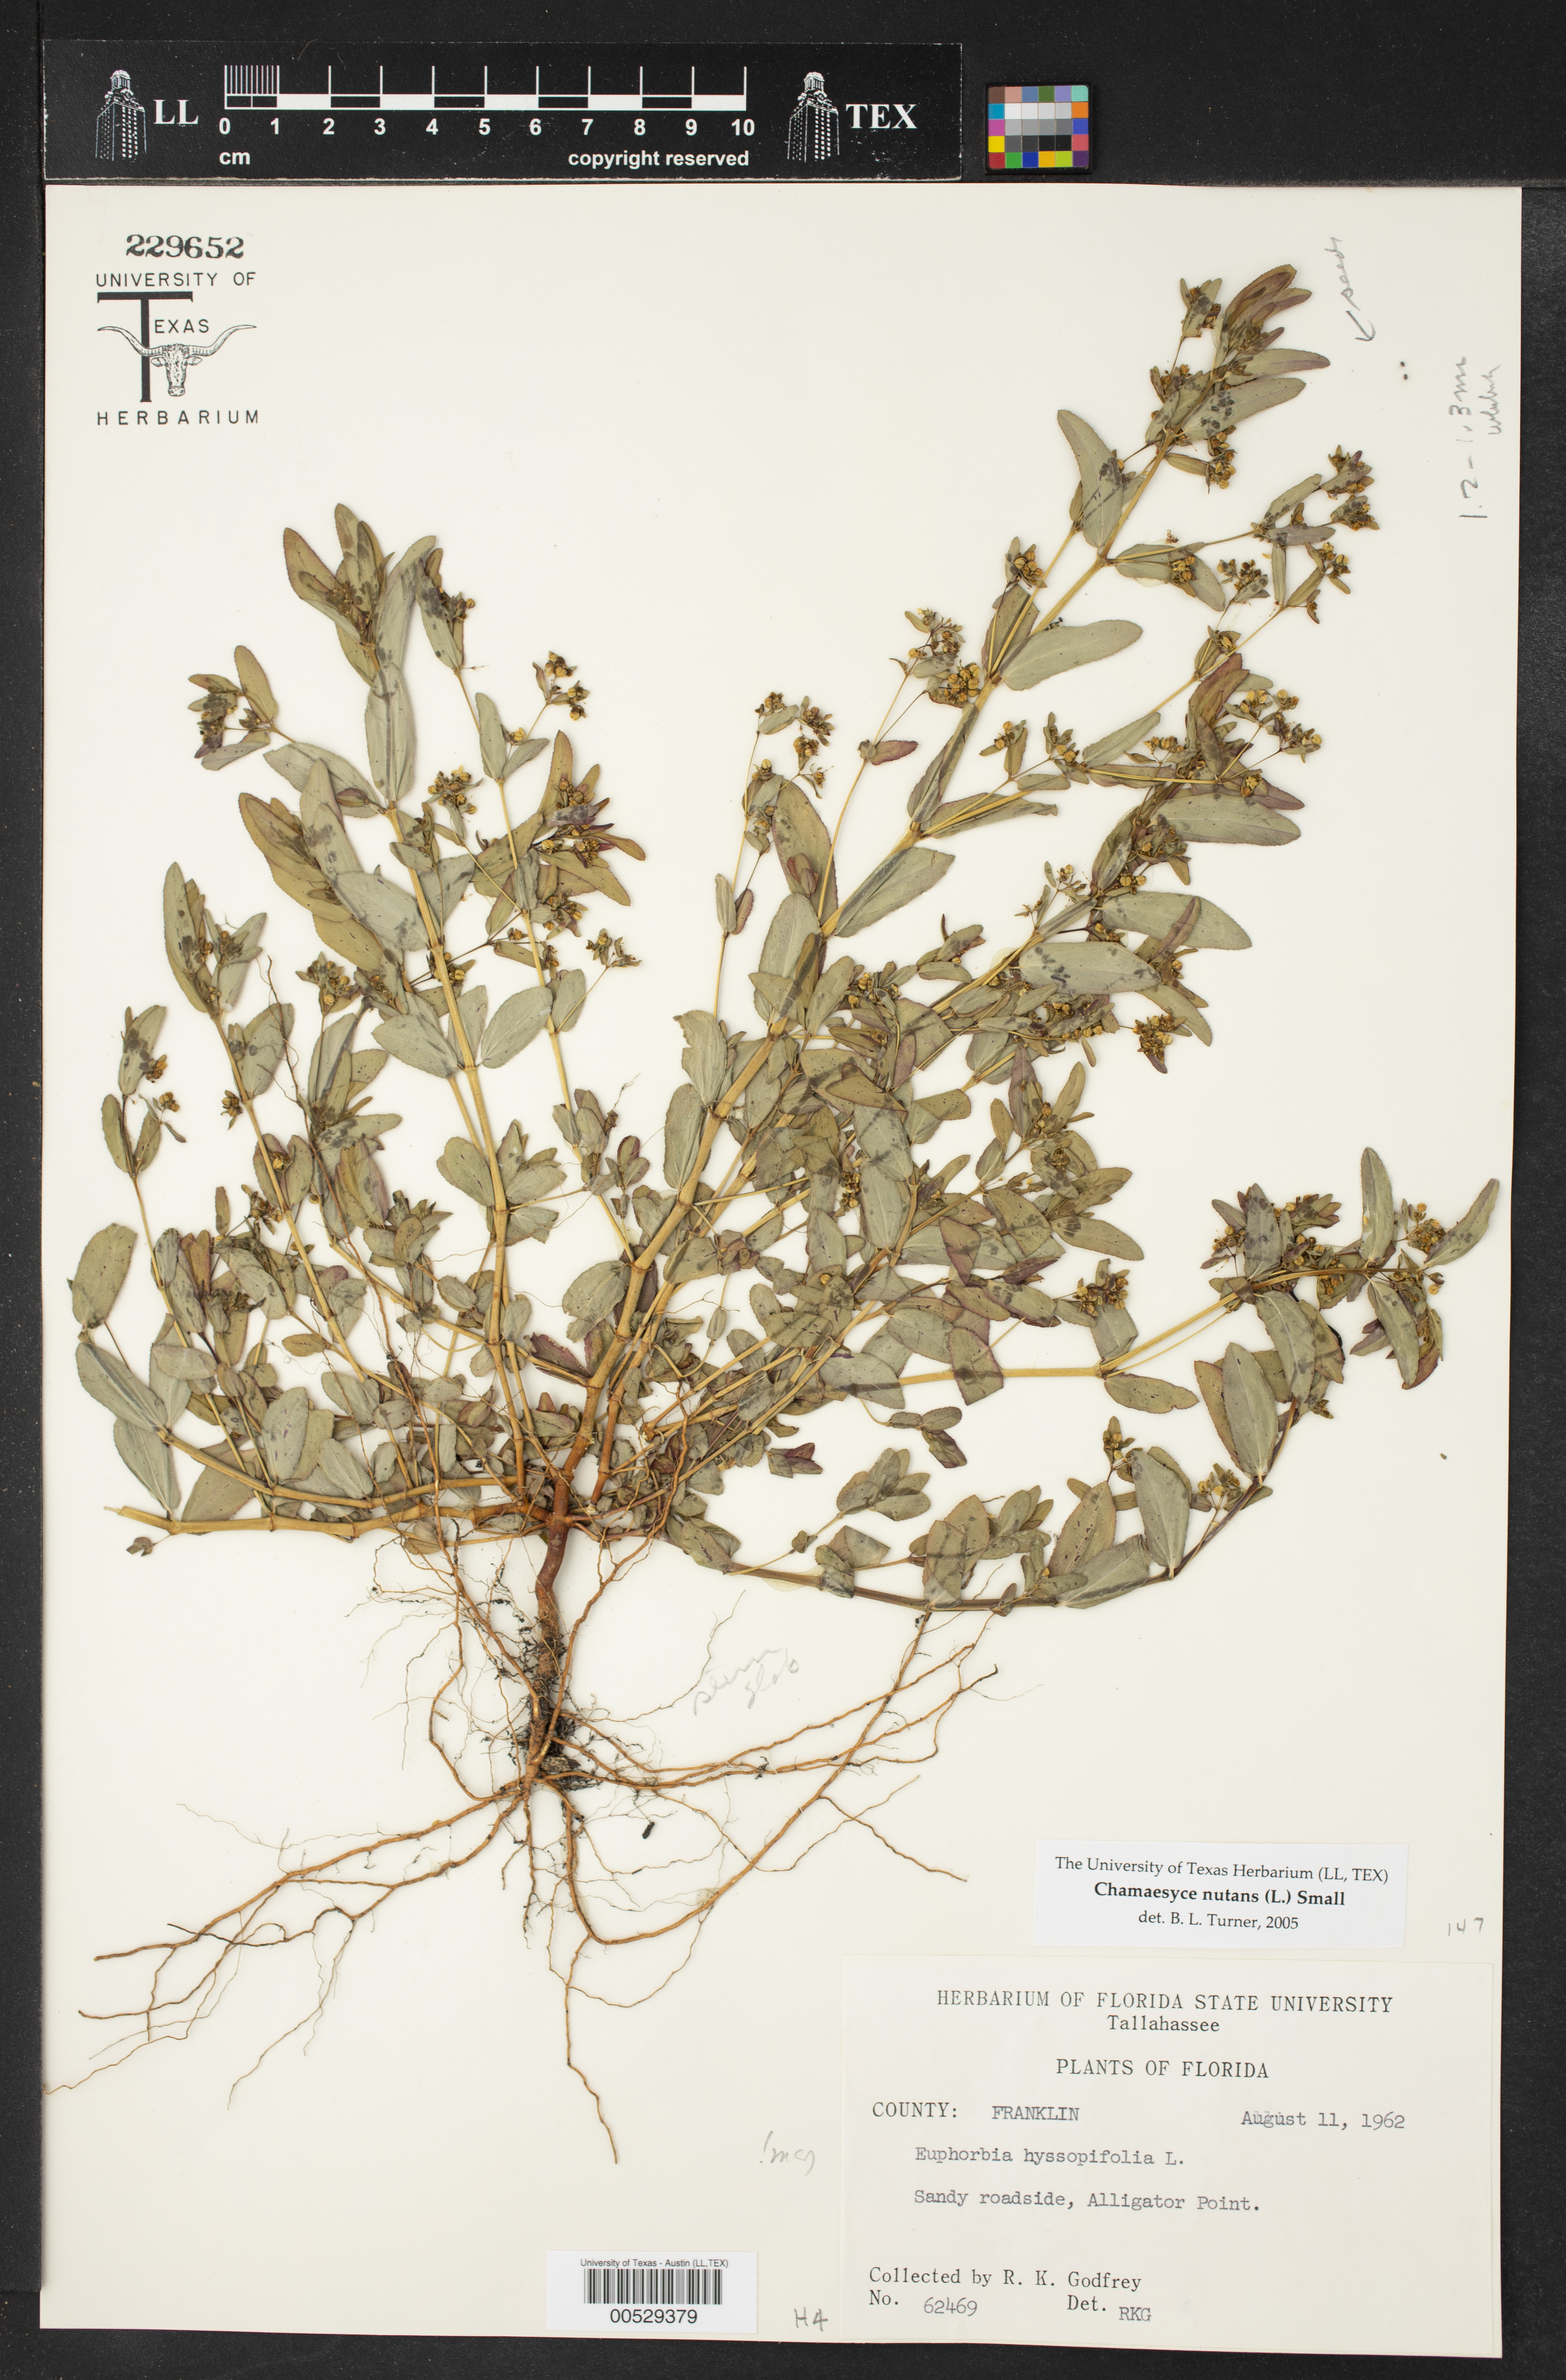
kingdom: Plantae
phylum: Tracheophyta
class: Magnoliopsida
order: Malpighiales
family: Euphorbiaceae
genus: Euphorbia
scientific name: Euphorbia nutans
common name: Eyebane
